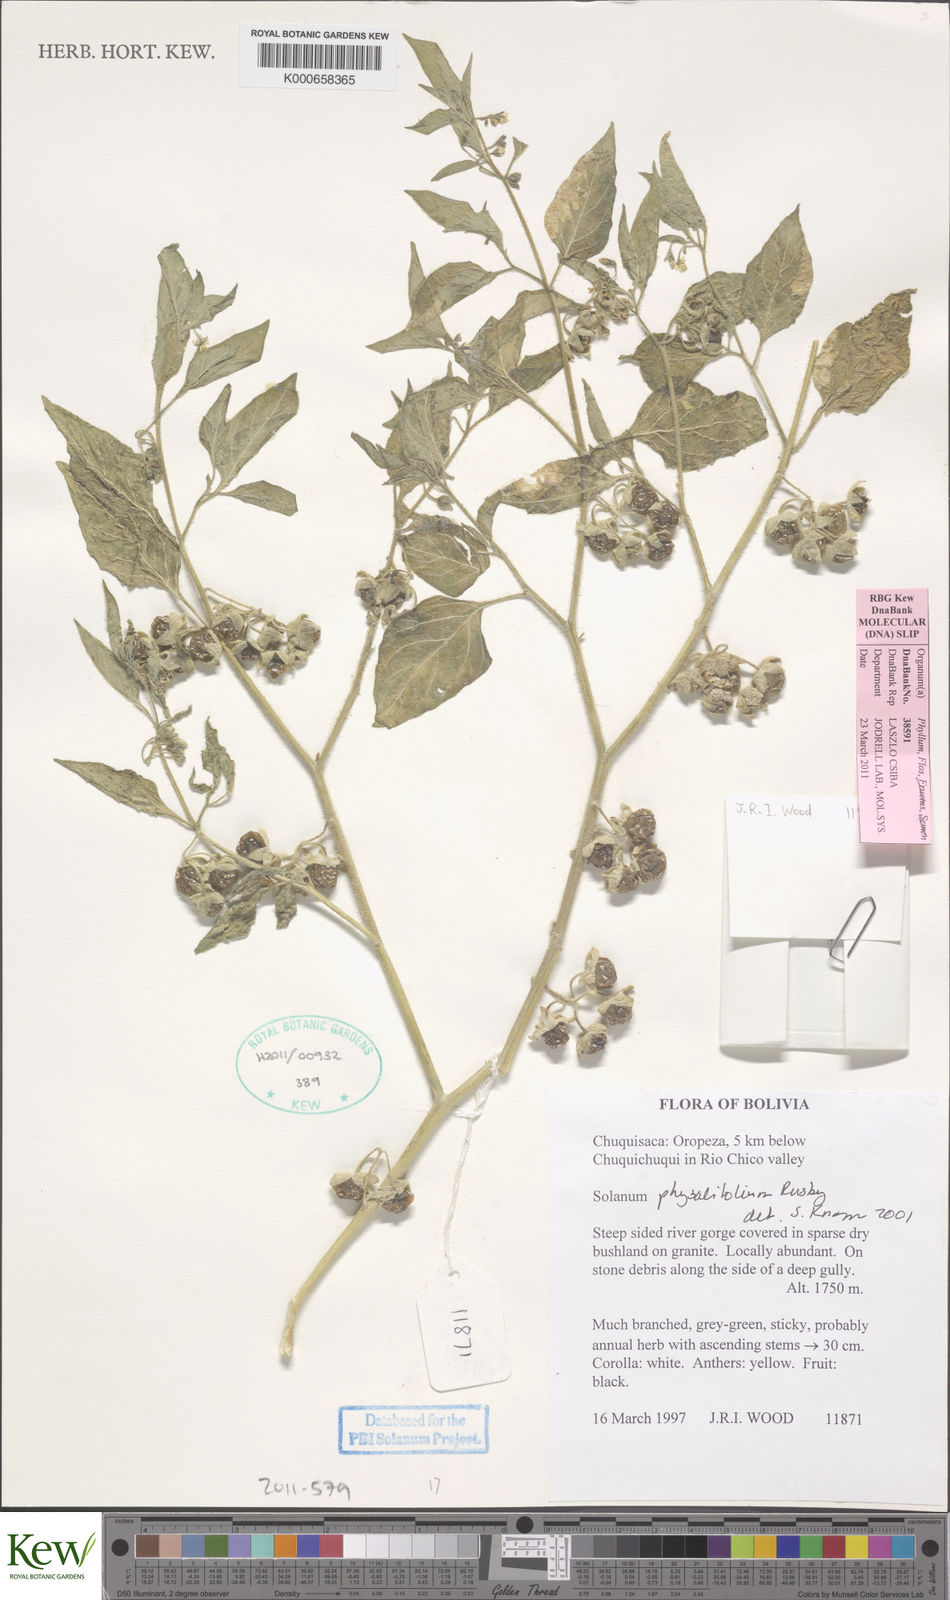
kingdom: Plantae
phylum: Tracheophyta
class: Magnoliopsida
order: Solanales
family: Solanaceae
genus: Solanum
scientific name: Solanum physalifolium
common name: Green nightshade
